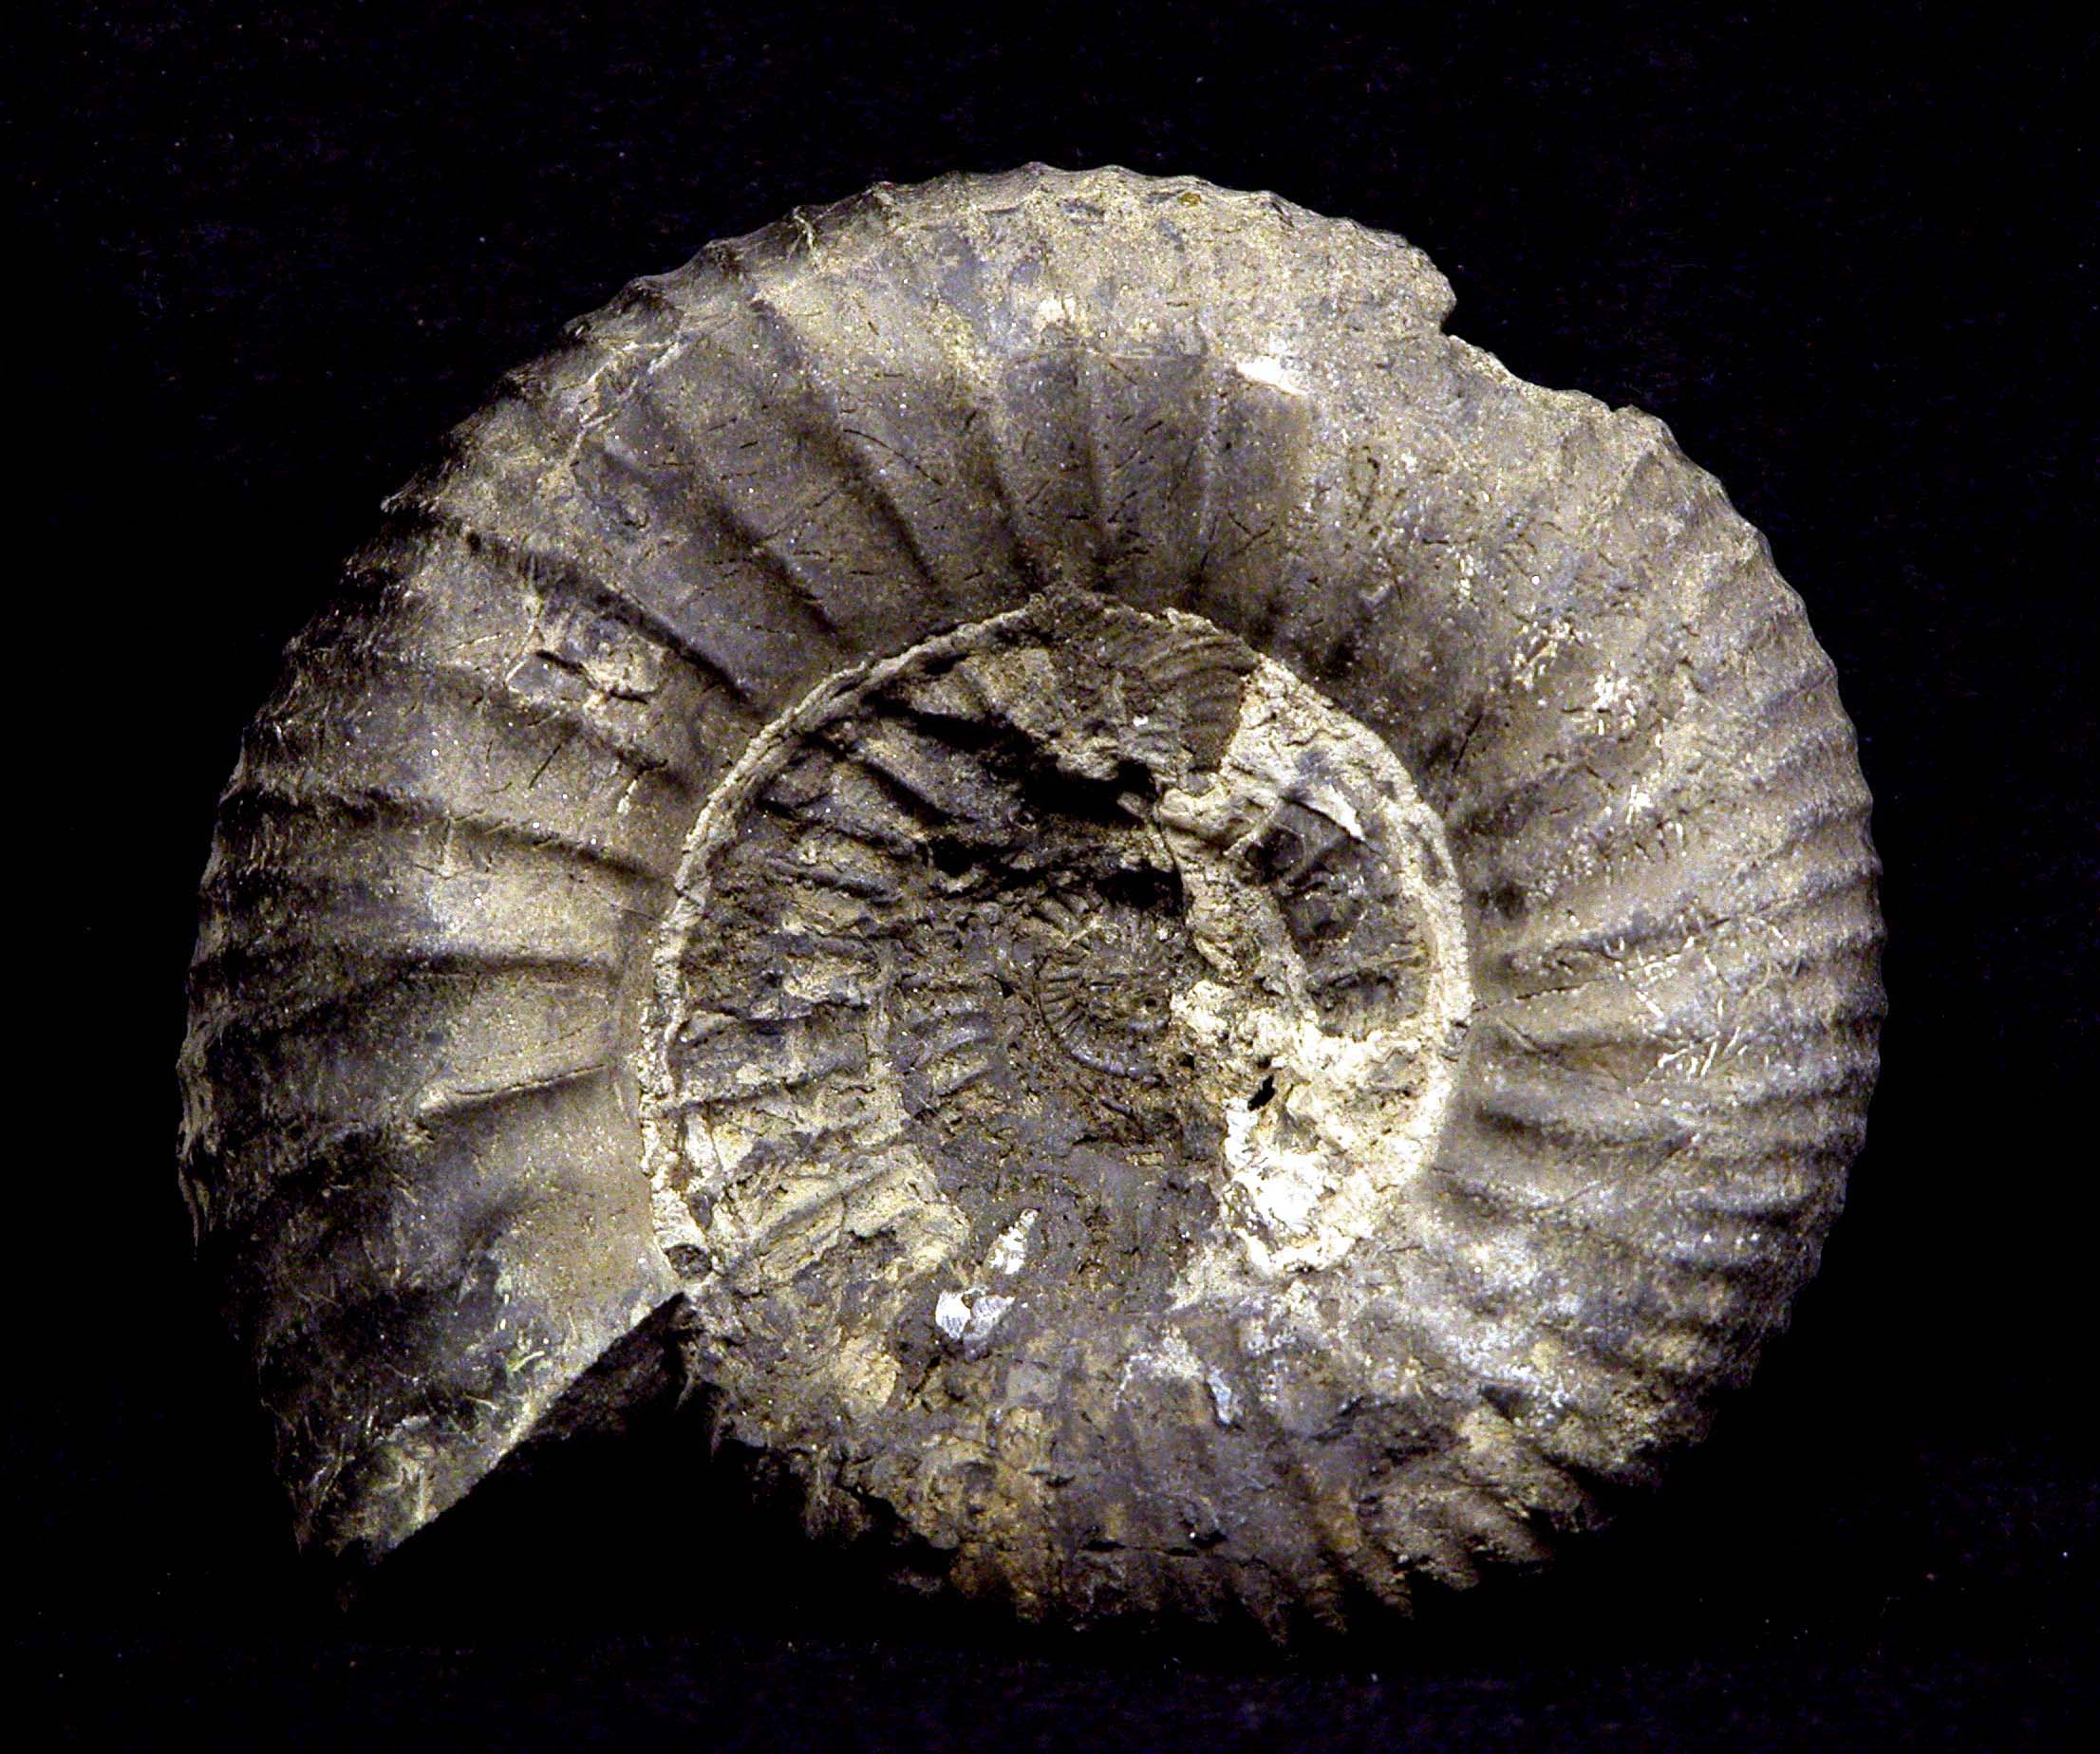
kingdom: Animalia
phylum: Mollusca
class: Cephalopoda
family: Perisphinctidae
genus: Dorsoplanites
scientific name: Dorsoplanites
